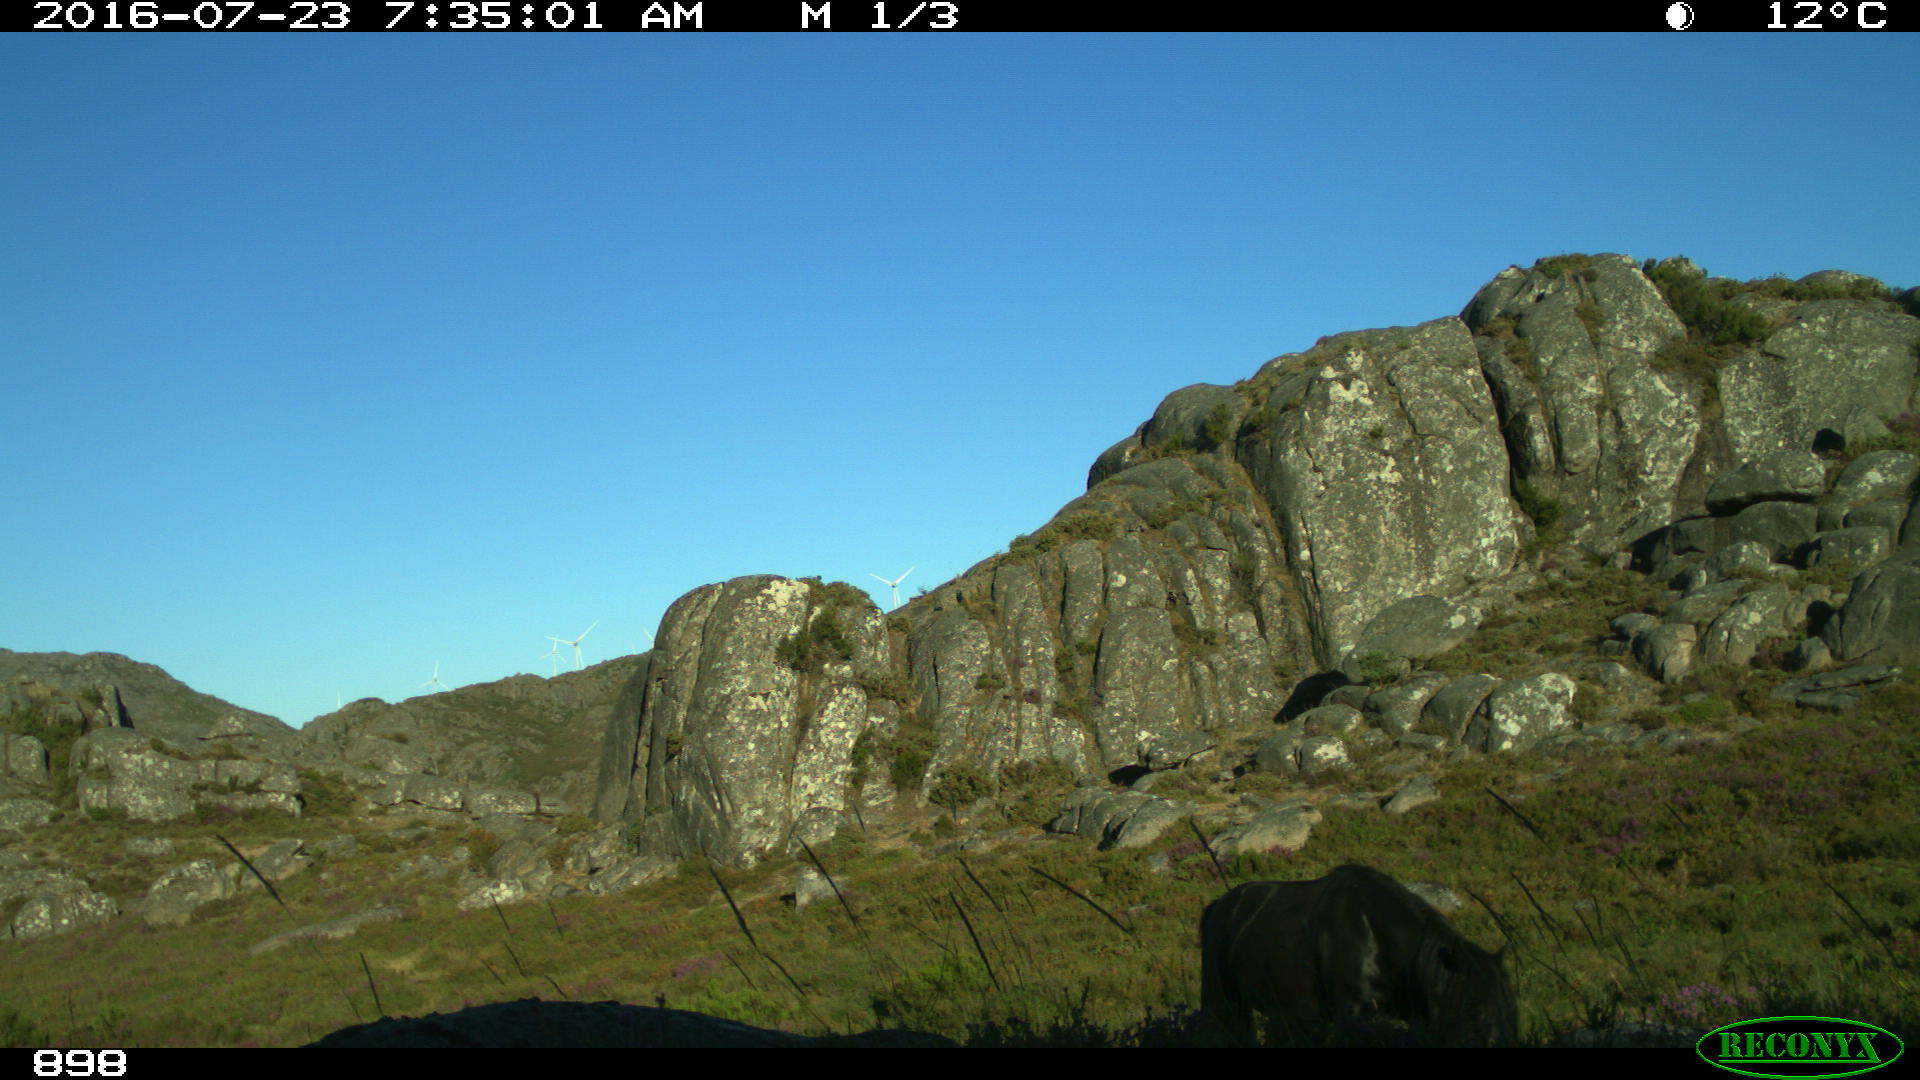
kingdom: Animalia
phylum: Chordata
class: Mammalia
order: Perissodactyla
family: Equidae
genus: Equus
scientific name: Equus caballus
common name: Horse
